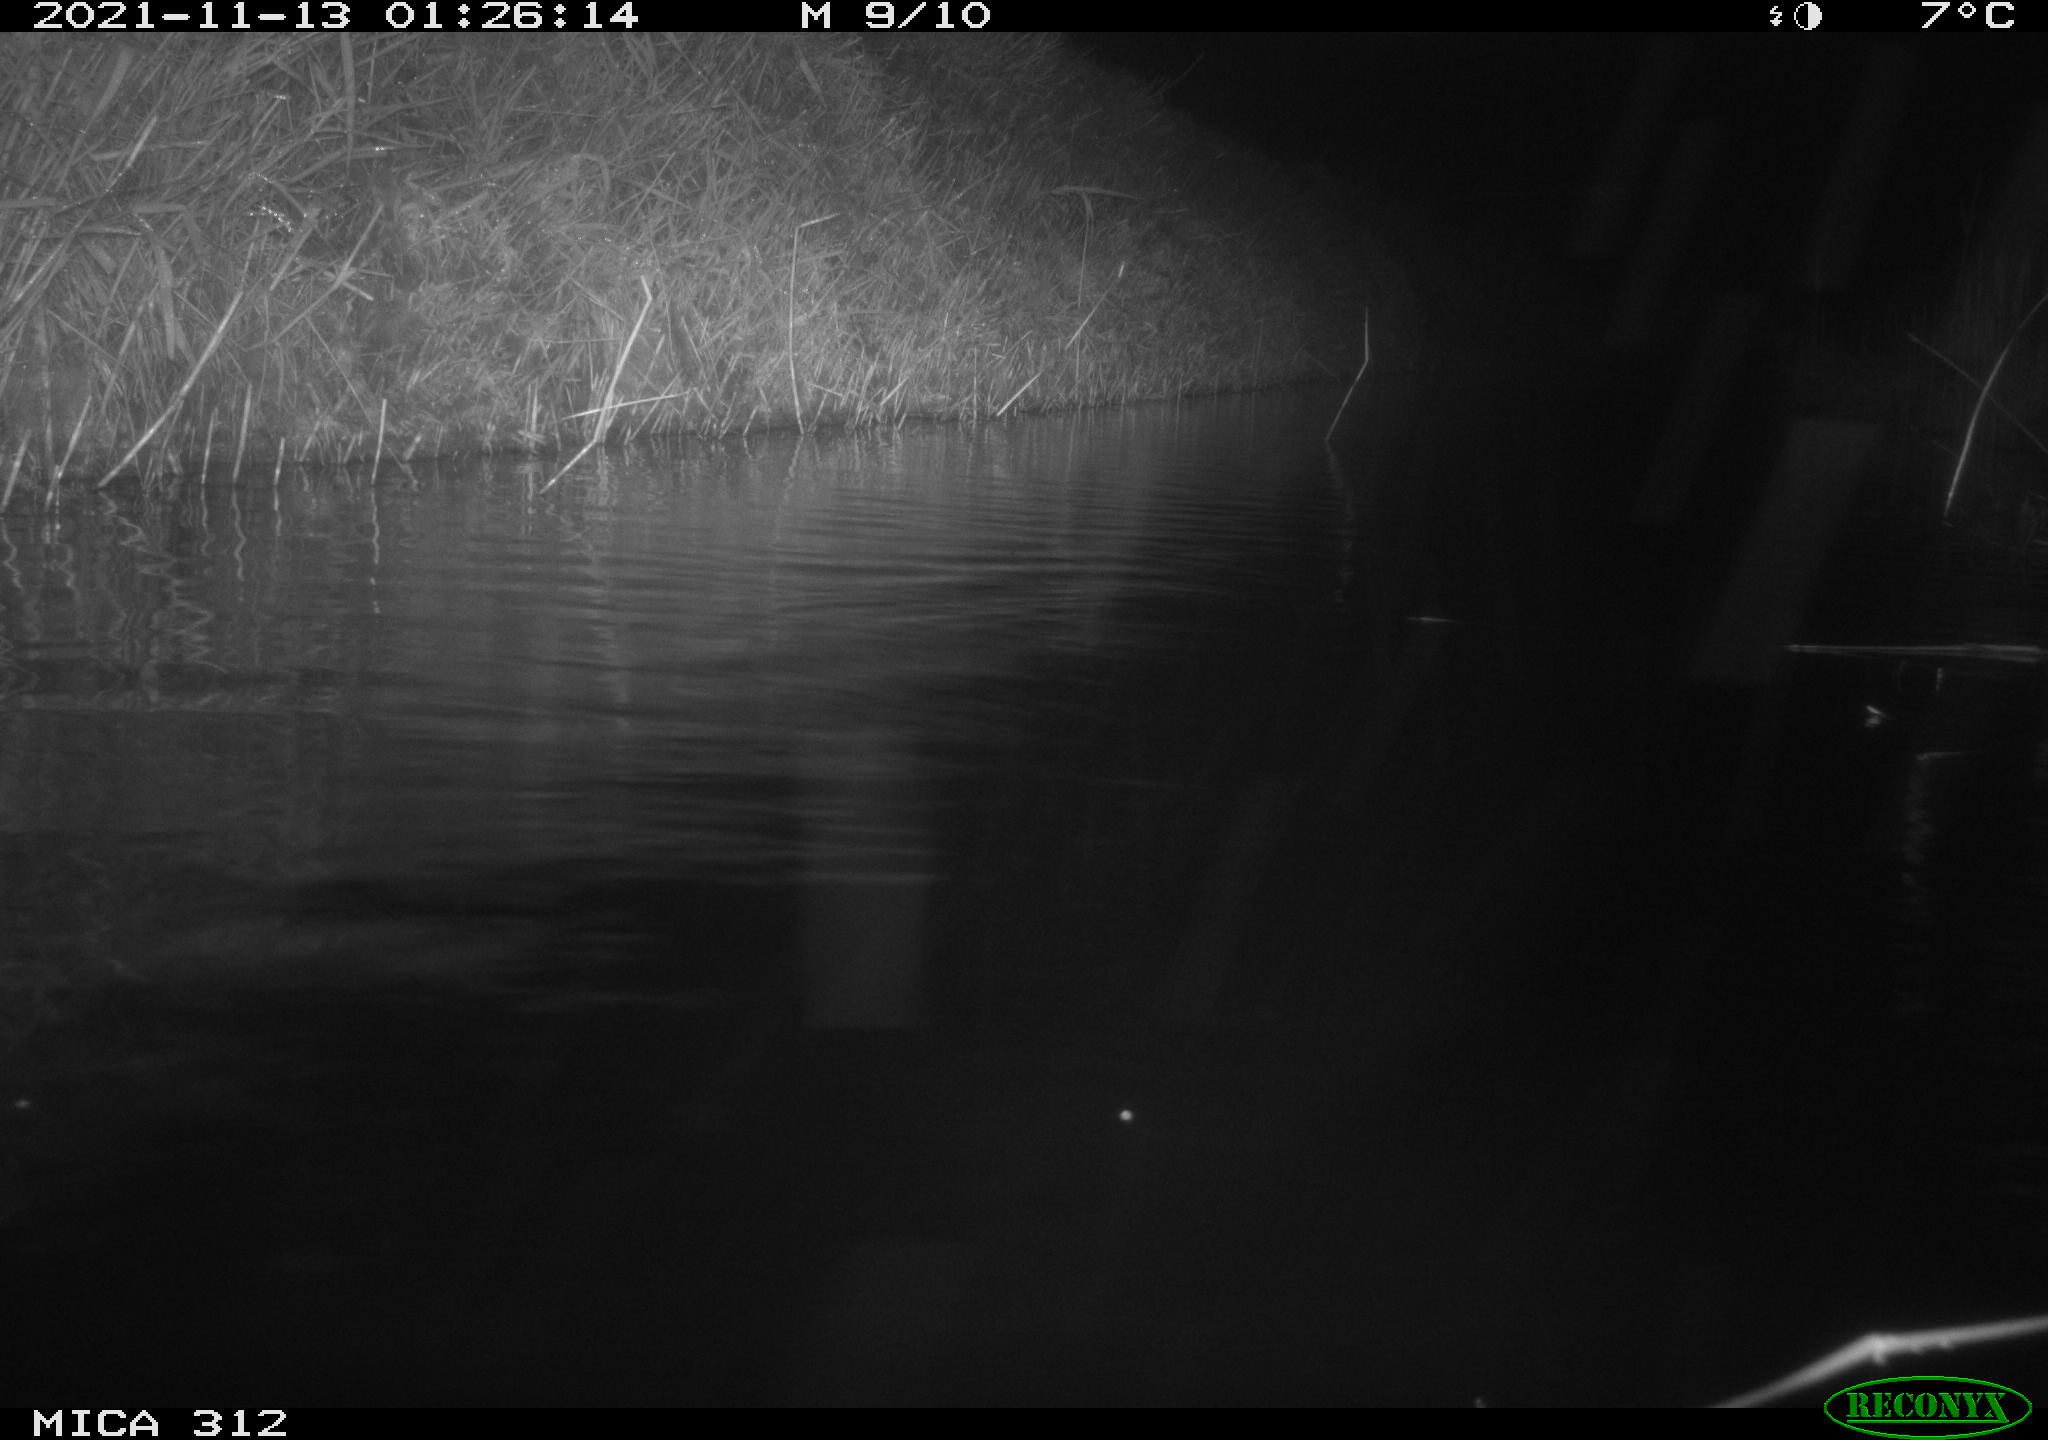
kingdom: Animalia
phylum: Chordata
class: Mammalia
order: Rodentia
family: Cricetidae
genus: Ondatra
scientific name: Ondatra zibethicus
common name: Muskrat
